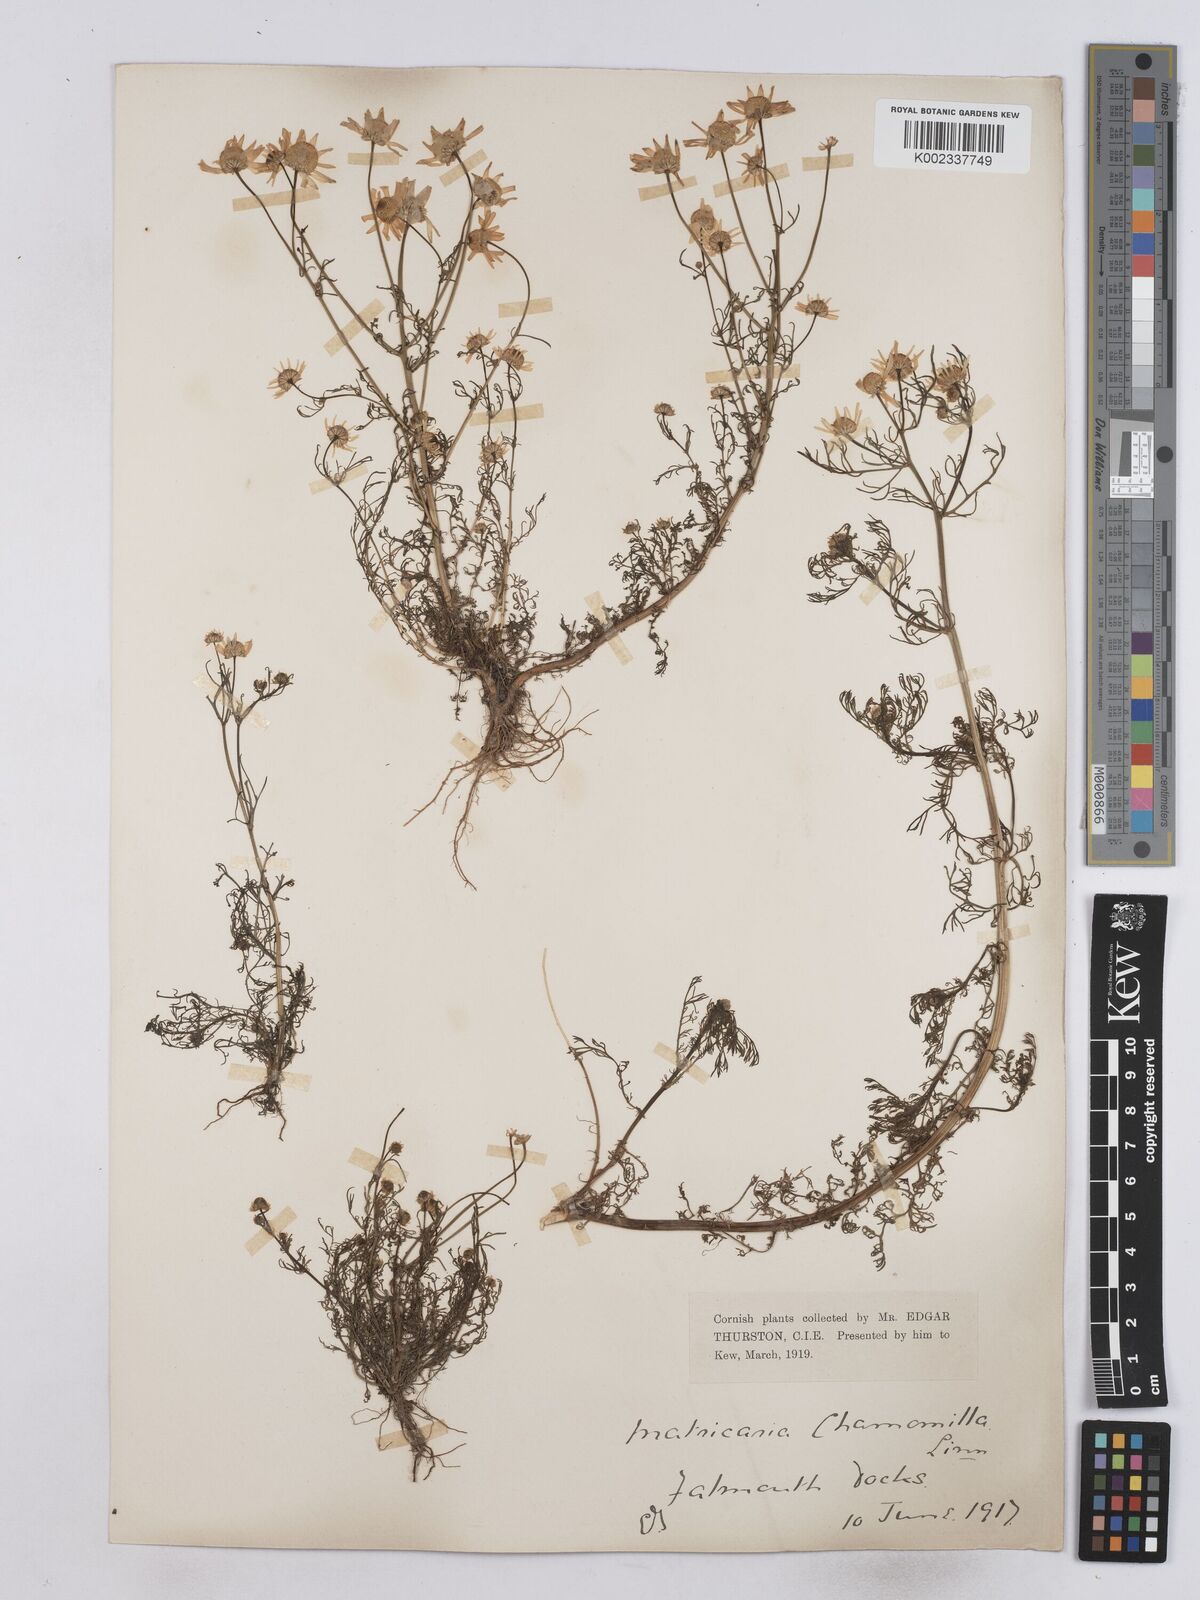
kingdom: Plantae
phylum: Tracheophyta
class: Magnoliopsida
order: Asterales
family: Asteraceae
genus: Matricaria
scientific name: Matricaria chamomilla
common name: Scented mayweed
